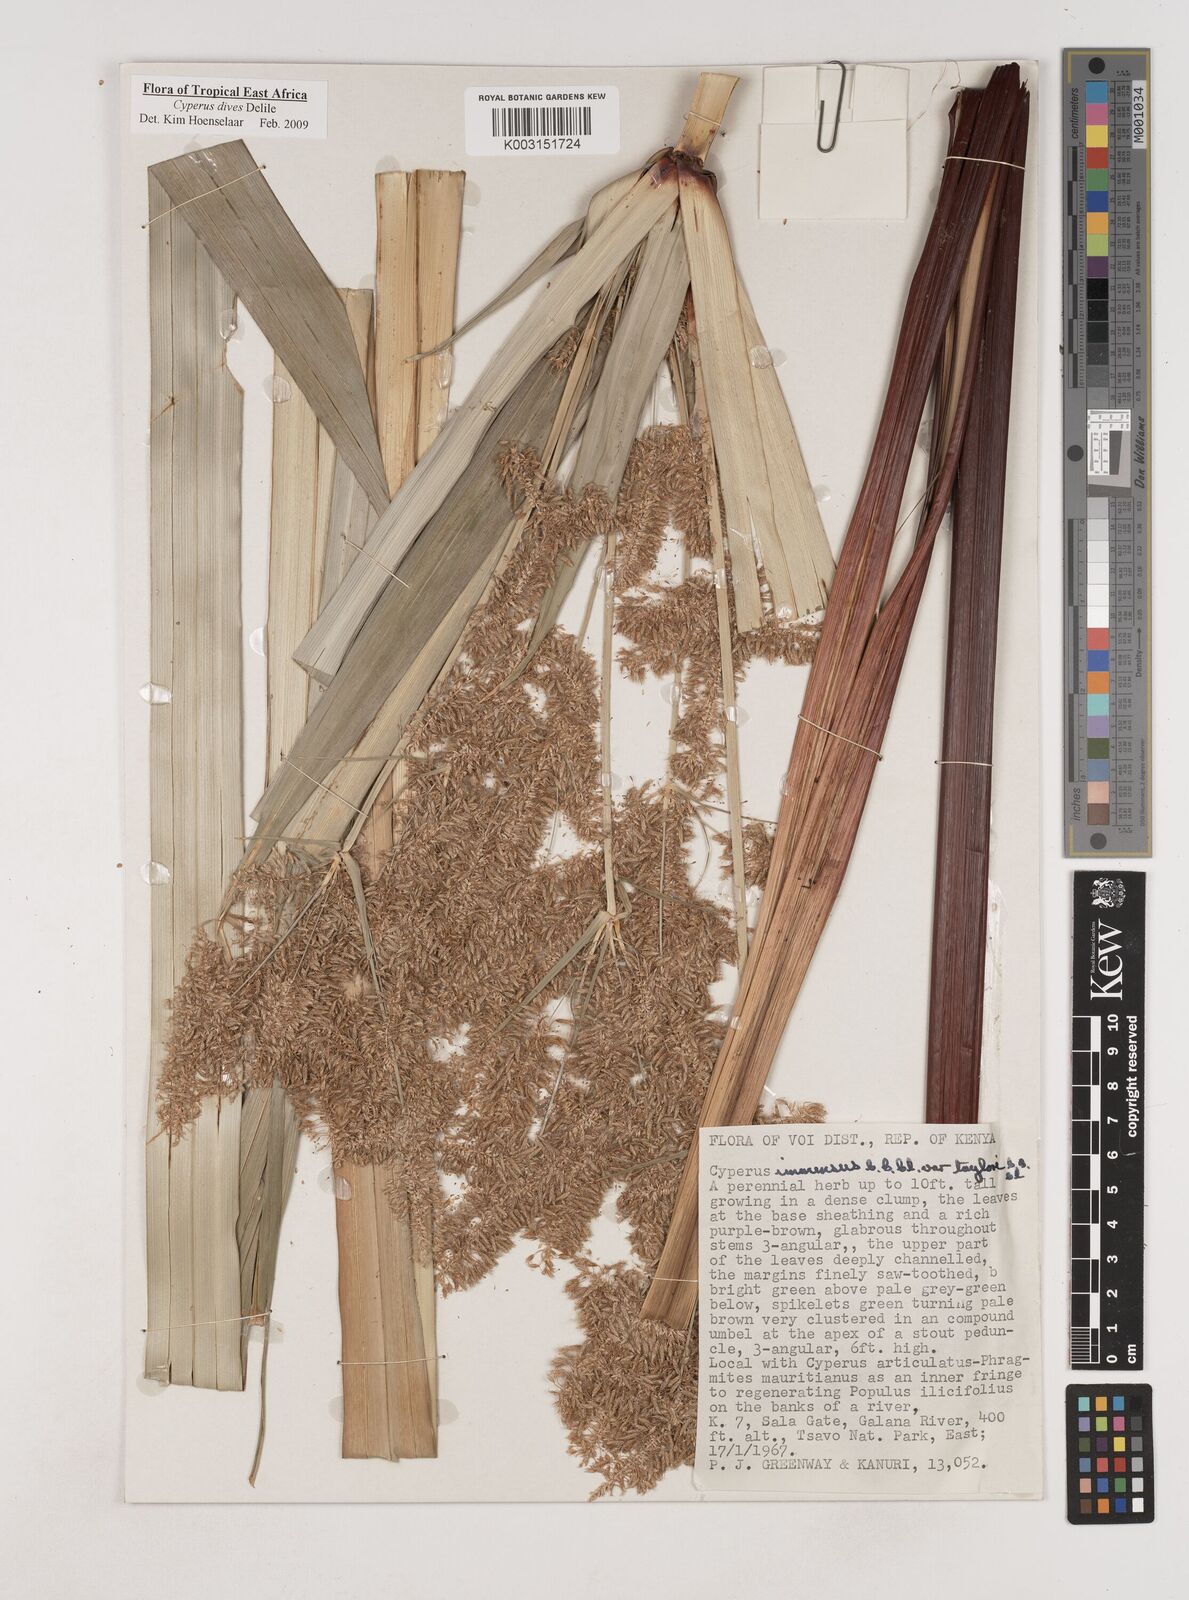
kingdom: Plantae
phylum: Tracheophyta
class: Liliopsida
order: Poales
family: Cyperaceae
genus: Cyperus
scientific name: Cyperus dives
